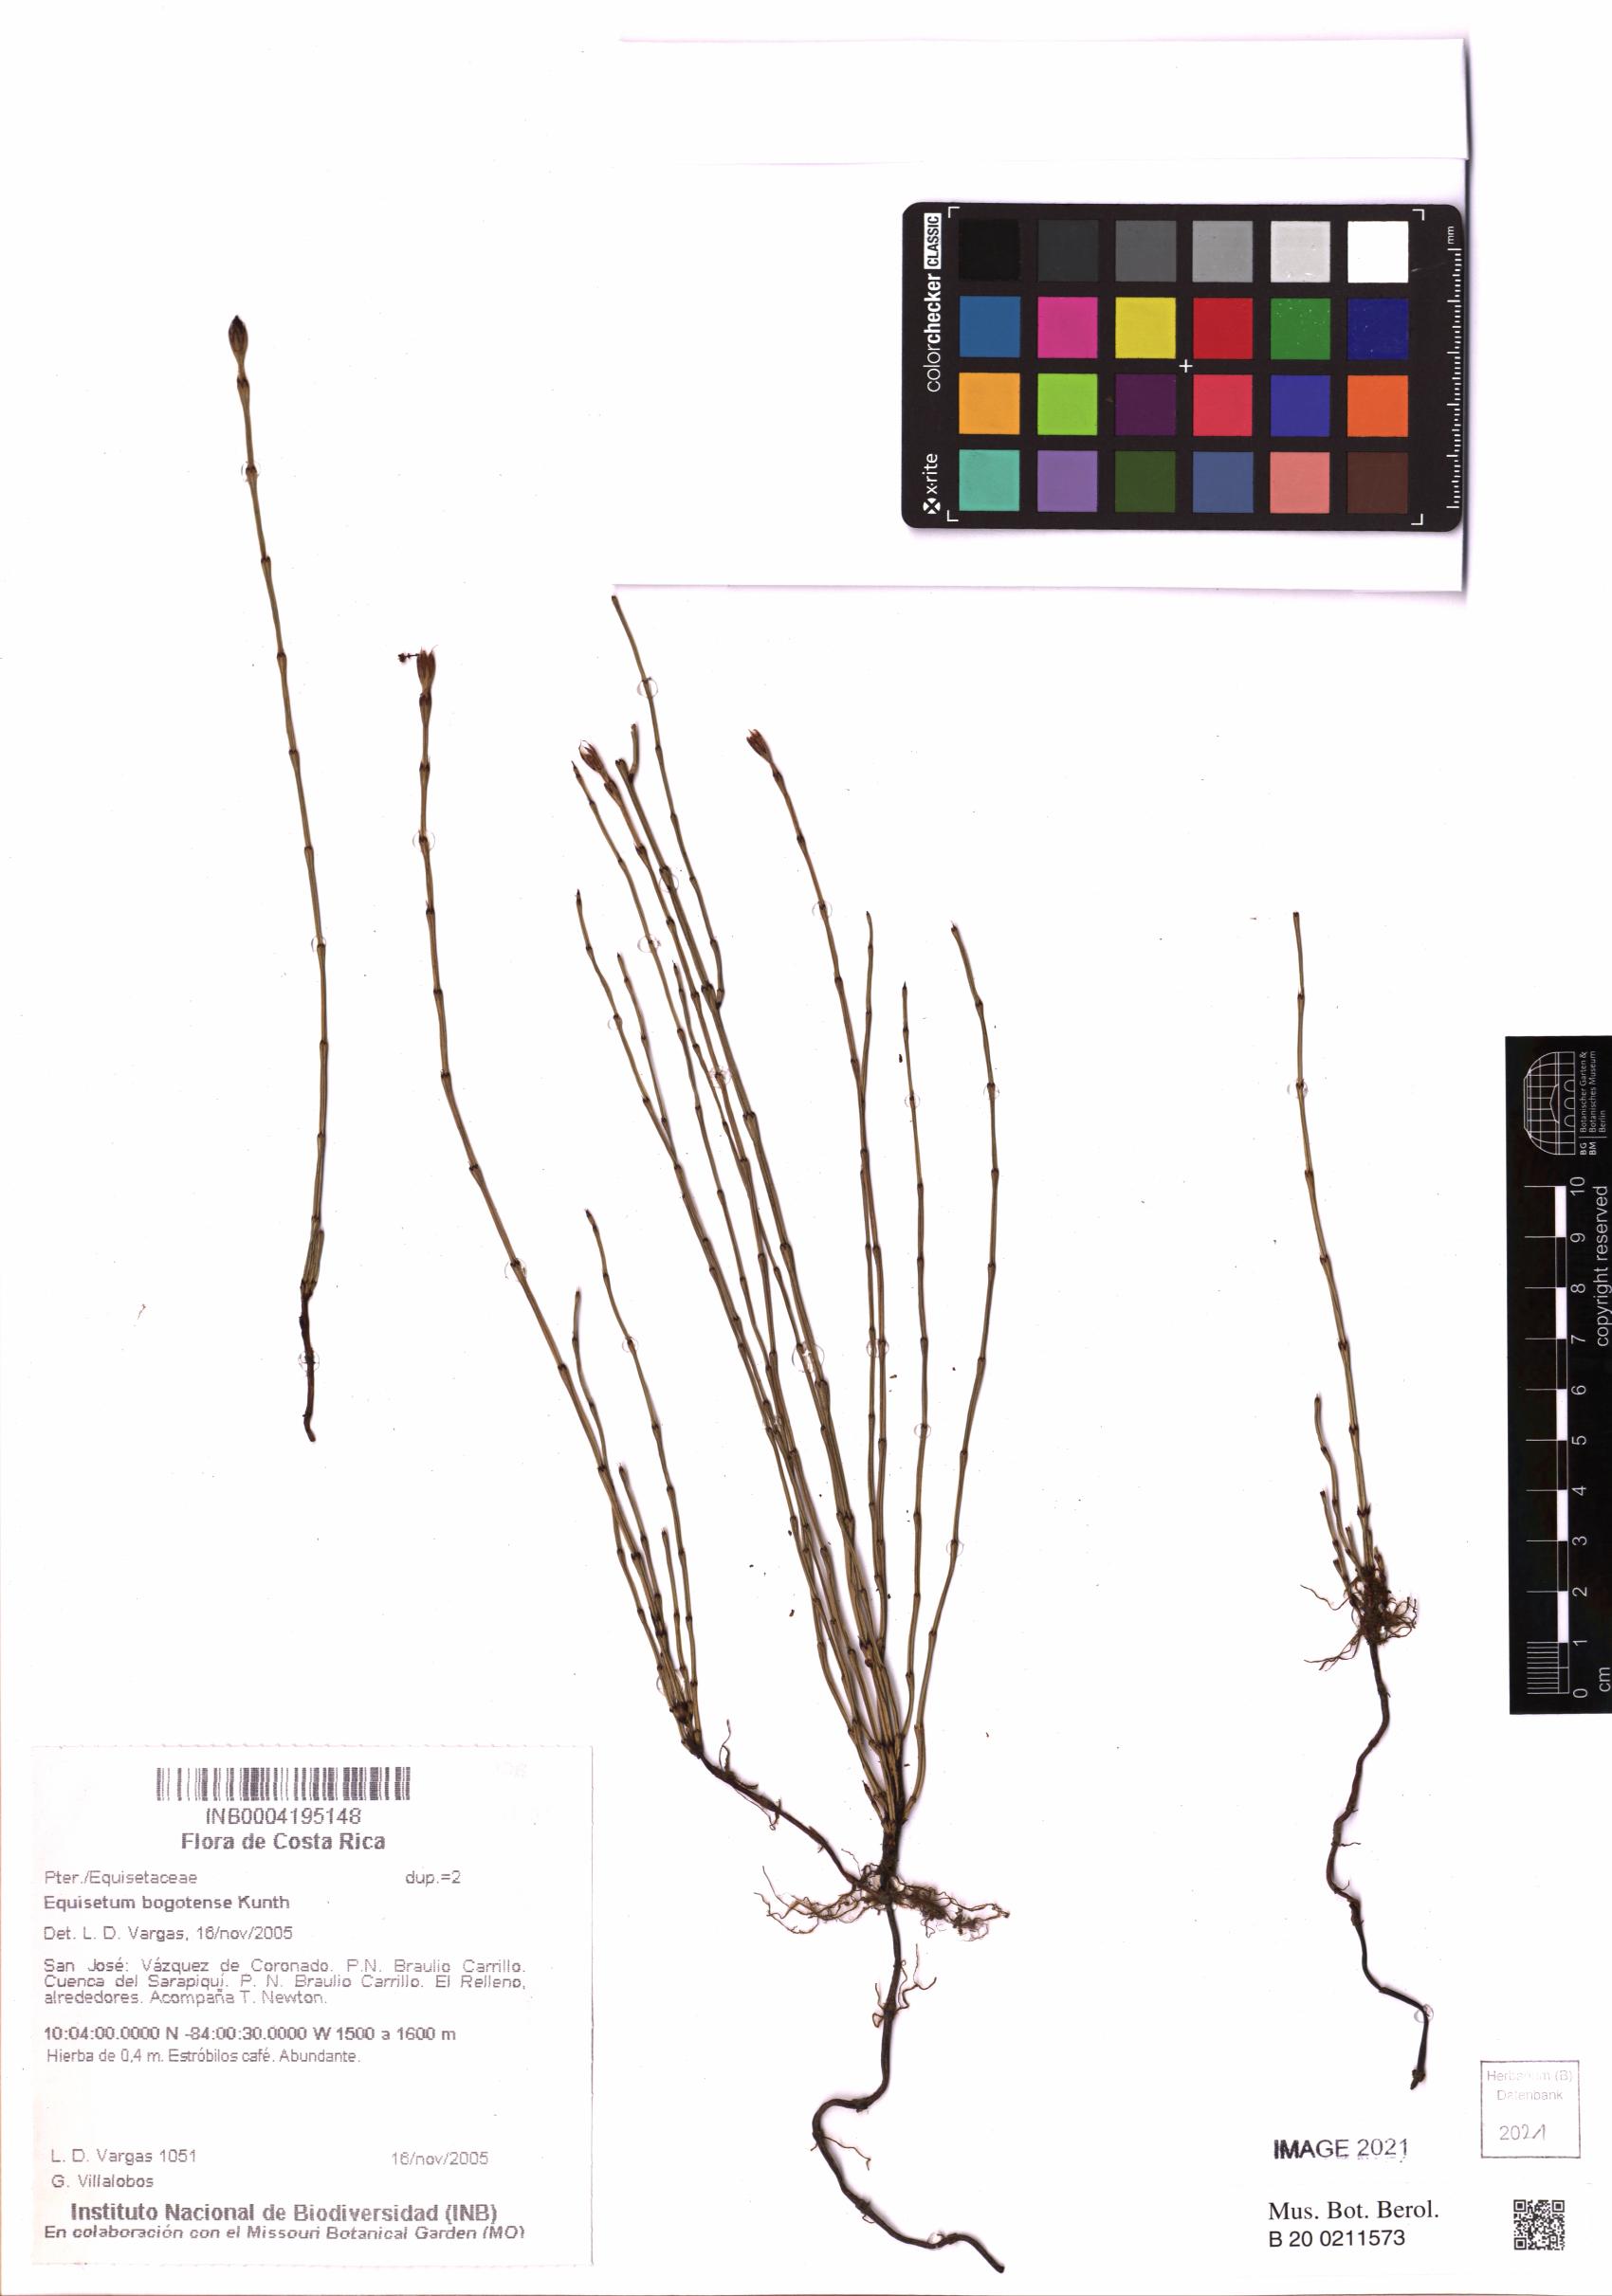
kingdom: Plantae
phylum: Tracheophyta
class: Polypodiopsida
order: Equisetales
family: Equisetaceae
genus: Equisetum
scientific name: Equisetum bogotense
